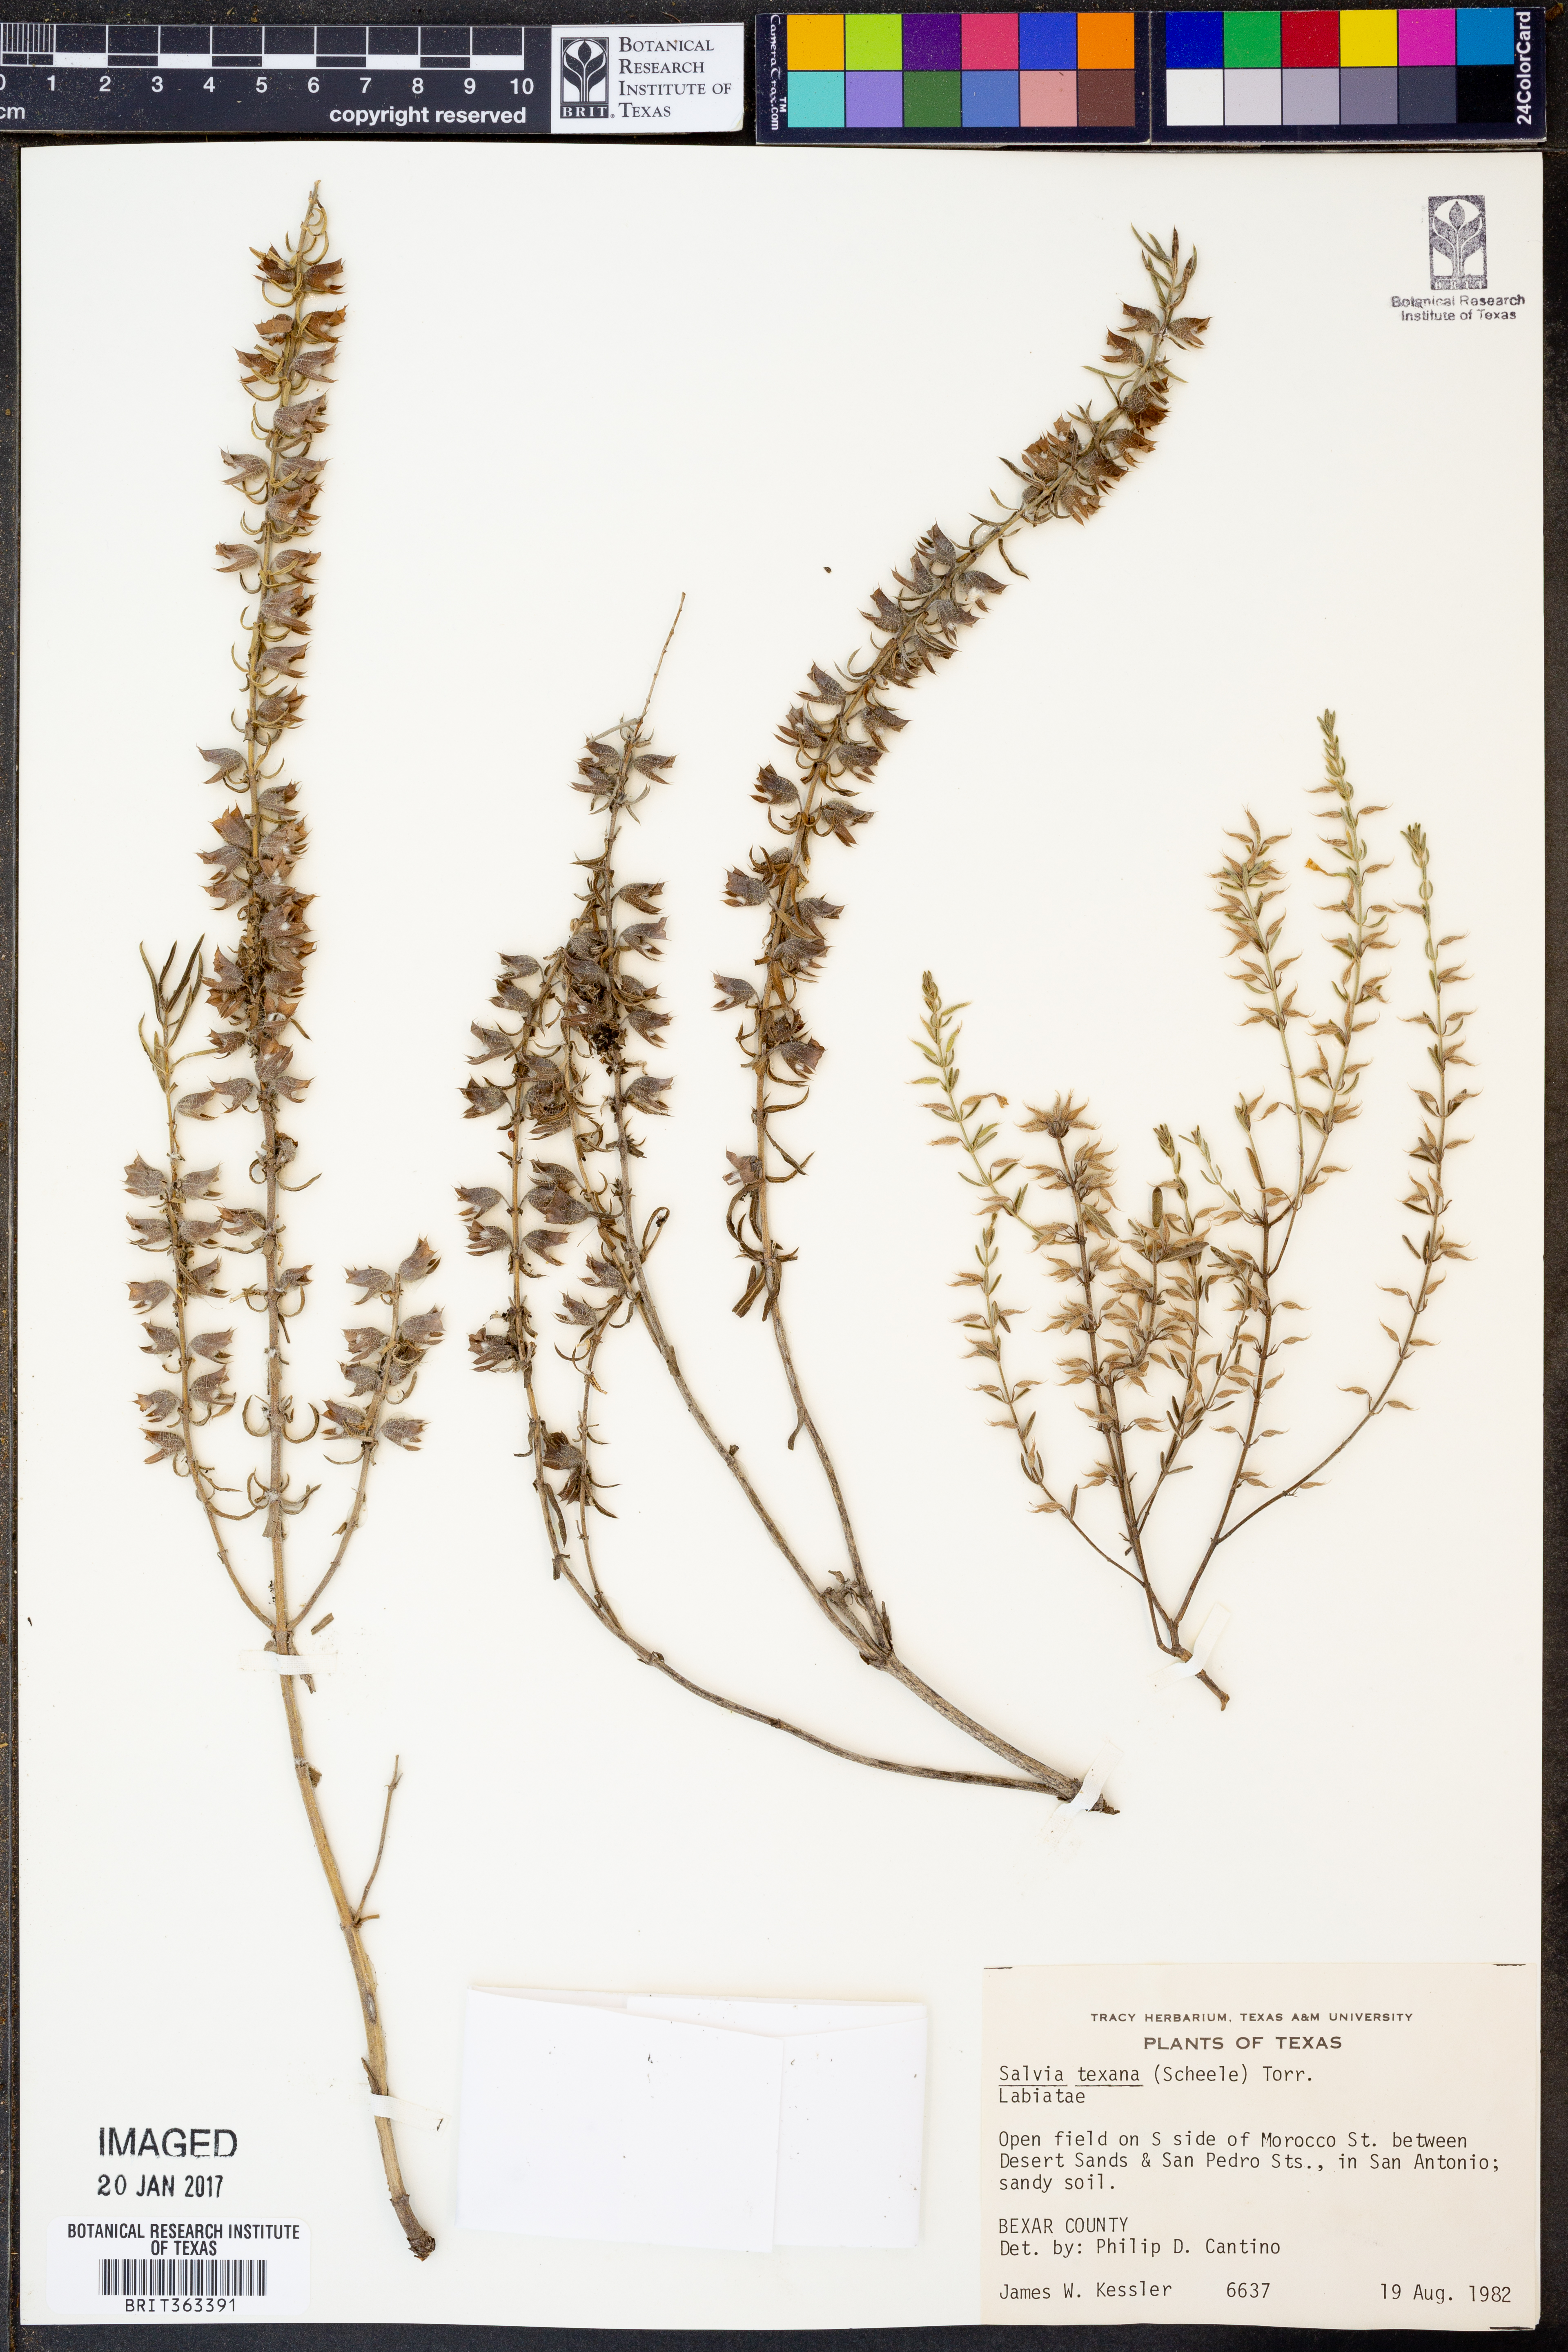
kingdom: Plantae
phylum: Tracheophyta
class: Magnoliopsida
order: Lamiales
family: Lamiaceae
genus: Salvia
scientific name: Salvia texana
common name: Texas sage
